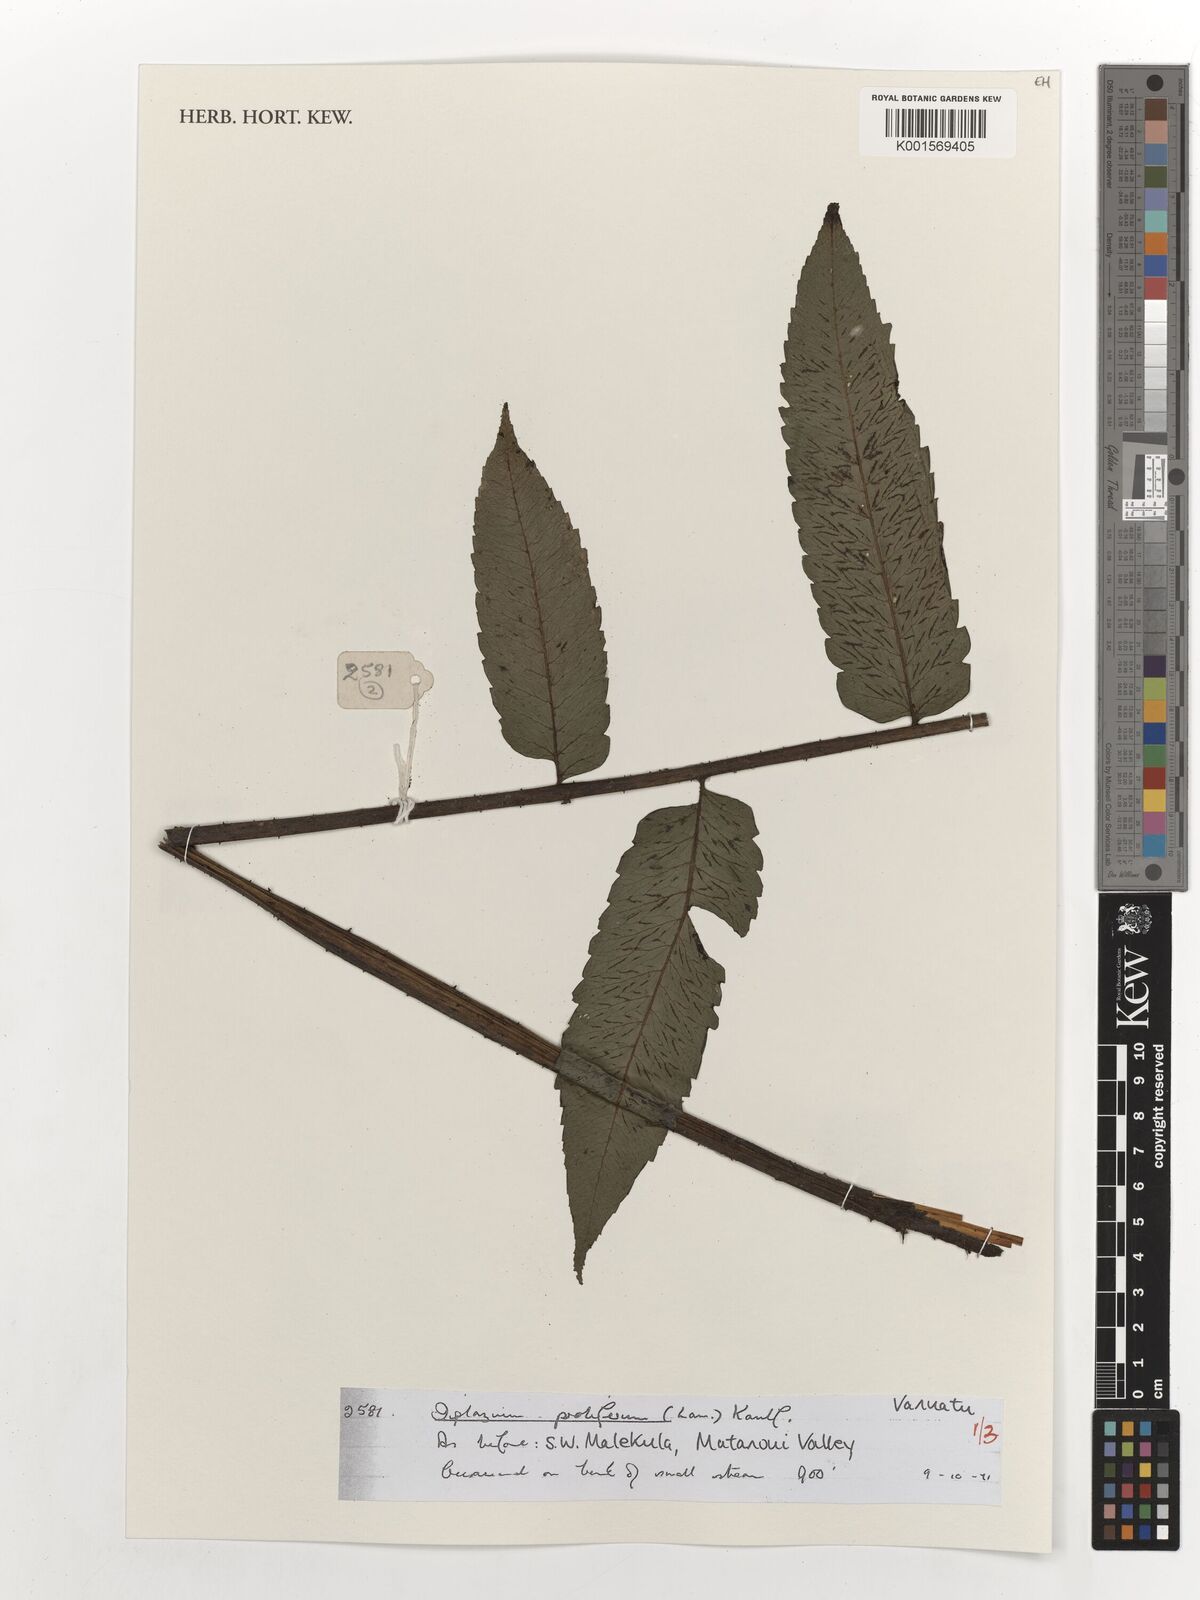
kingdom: Plantae
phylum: Tracheophyta
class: Polypodiopsida
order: Polypodiales
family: Athyriaceae
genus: Diplazium
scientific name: Diplazium proliferum
